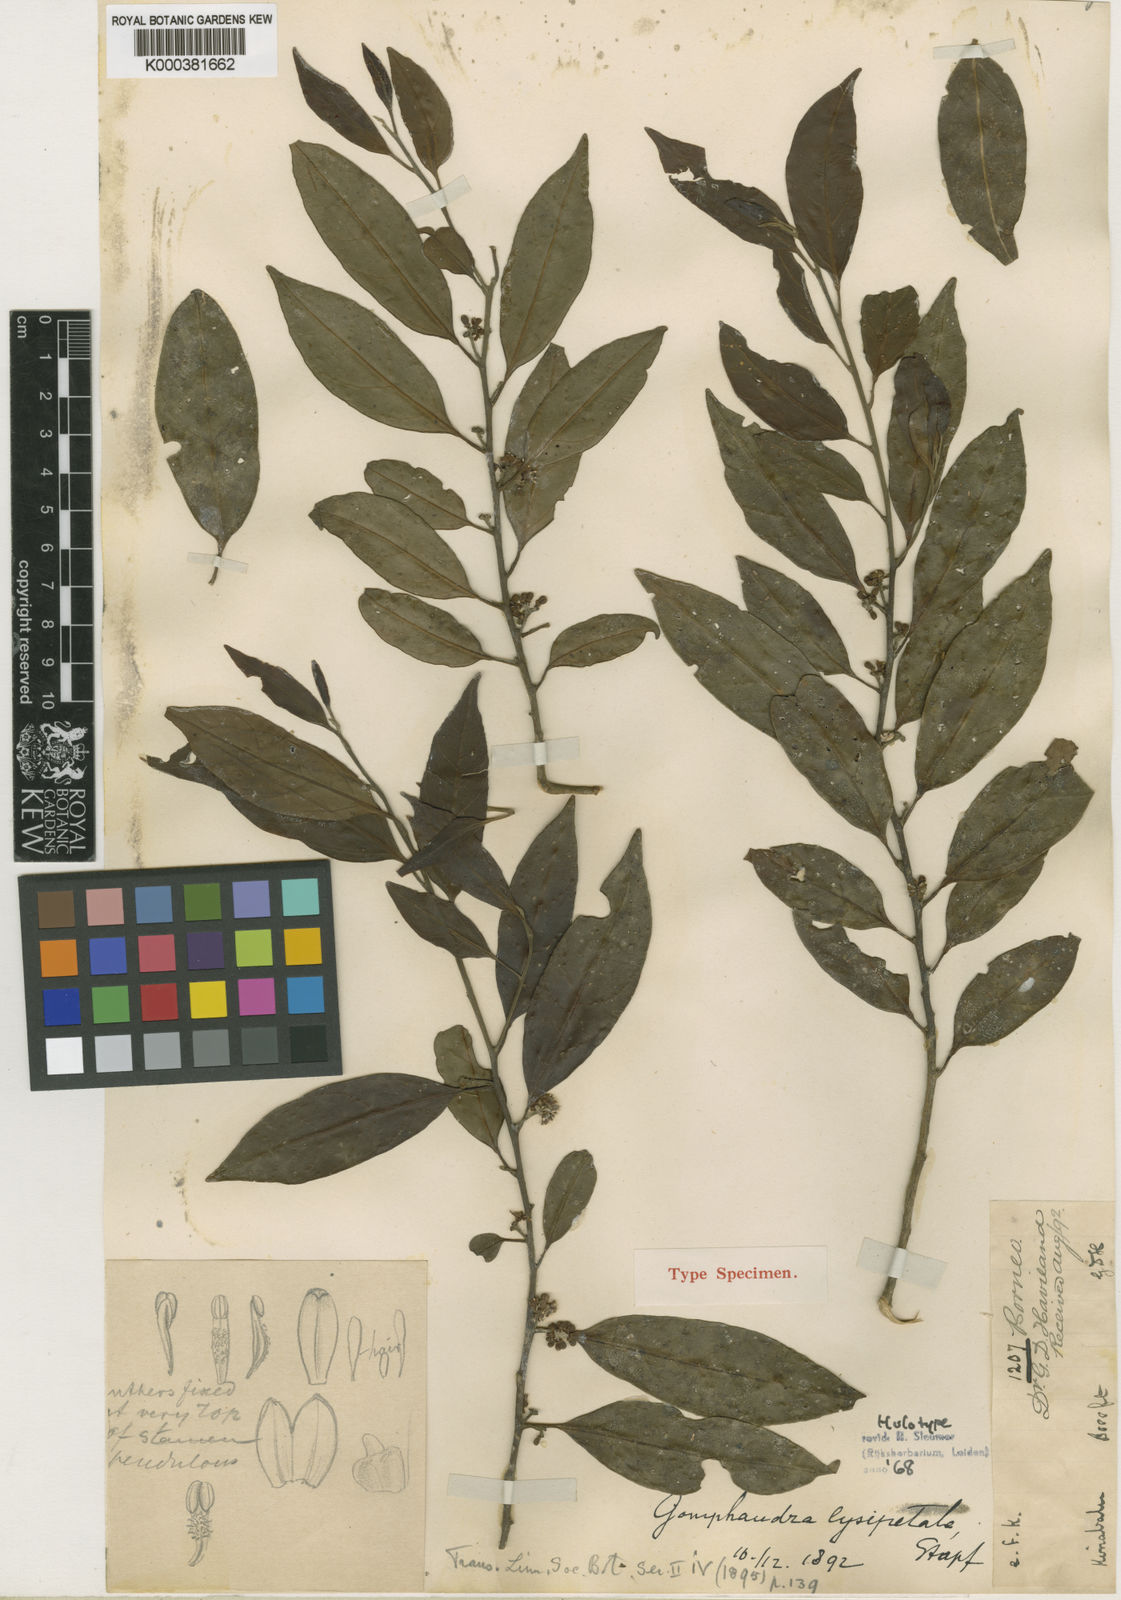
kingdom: Plantae
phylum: Tracheophyta
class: Magnoliopsida
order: Cardiopteridales
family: Stemonuraceae
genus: Gomphandra
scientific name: Gomphandra lysipetala
